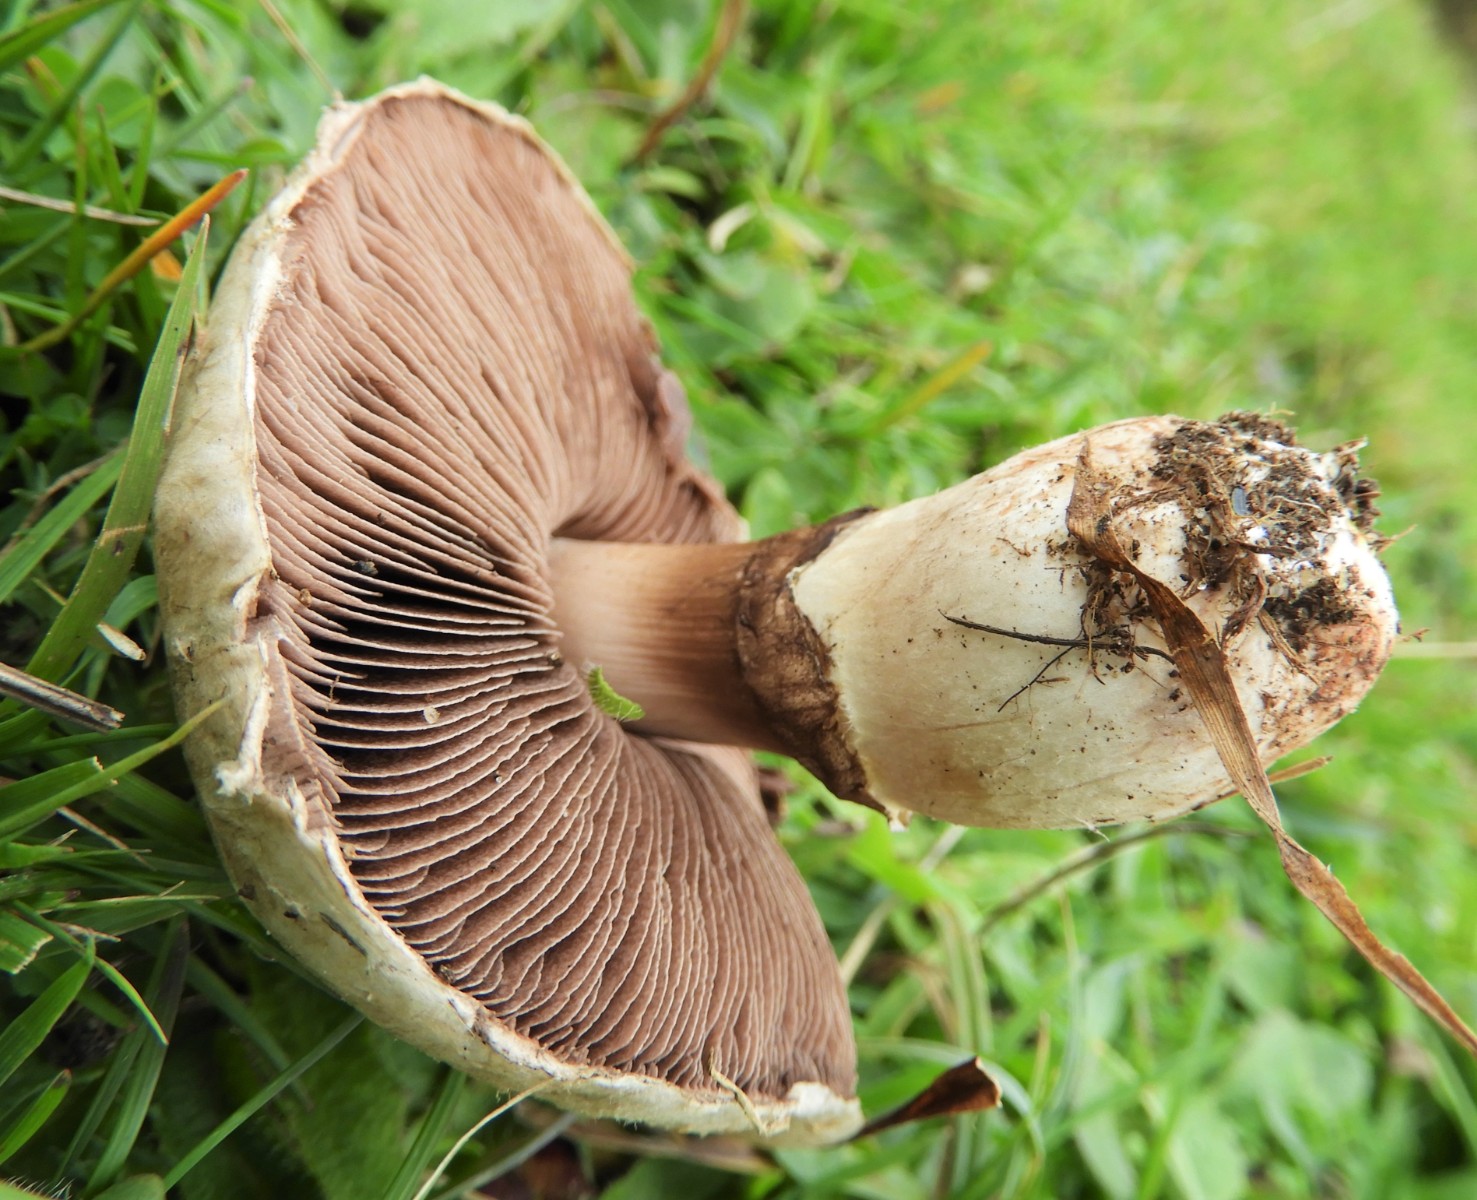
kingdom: Fungi
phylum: Basidiomycota
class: Agaricomycetes
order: Agaricales
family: Agaricaceae
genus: Agaricus
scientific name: Agaricus litoralis
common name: kyst-champignon
